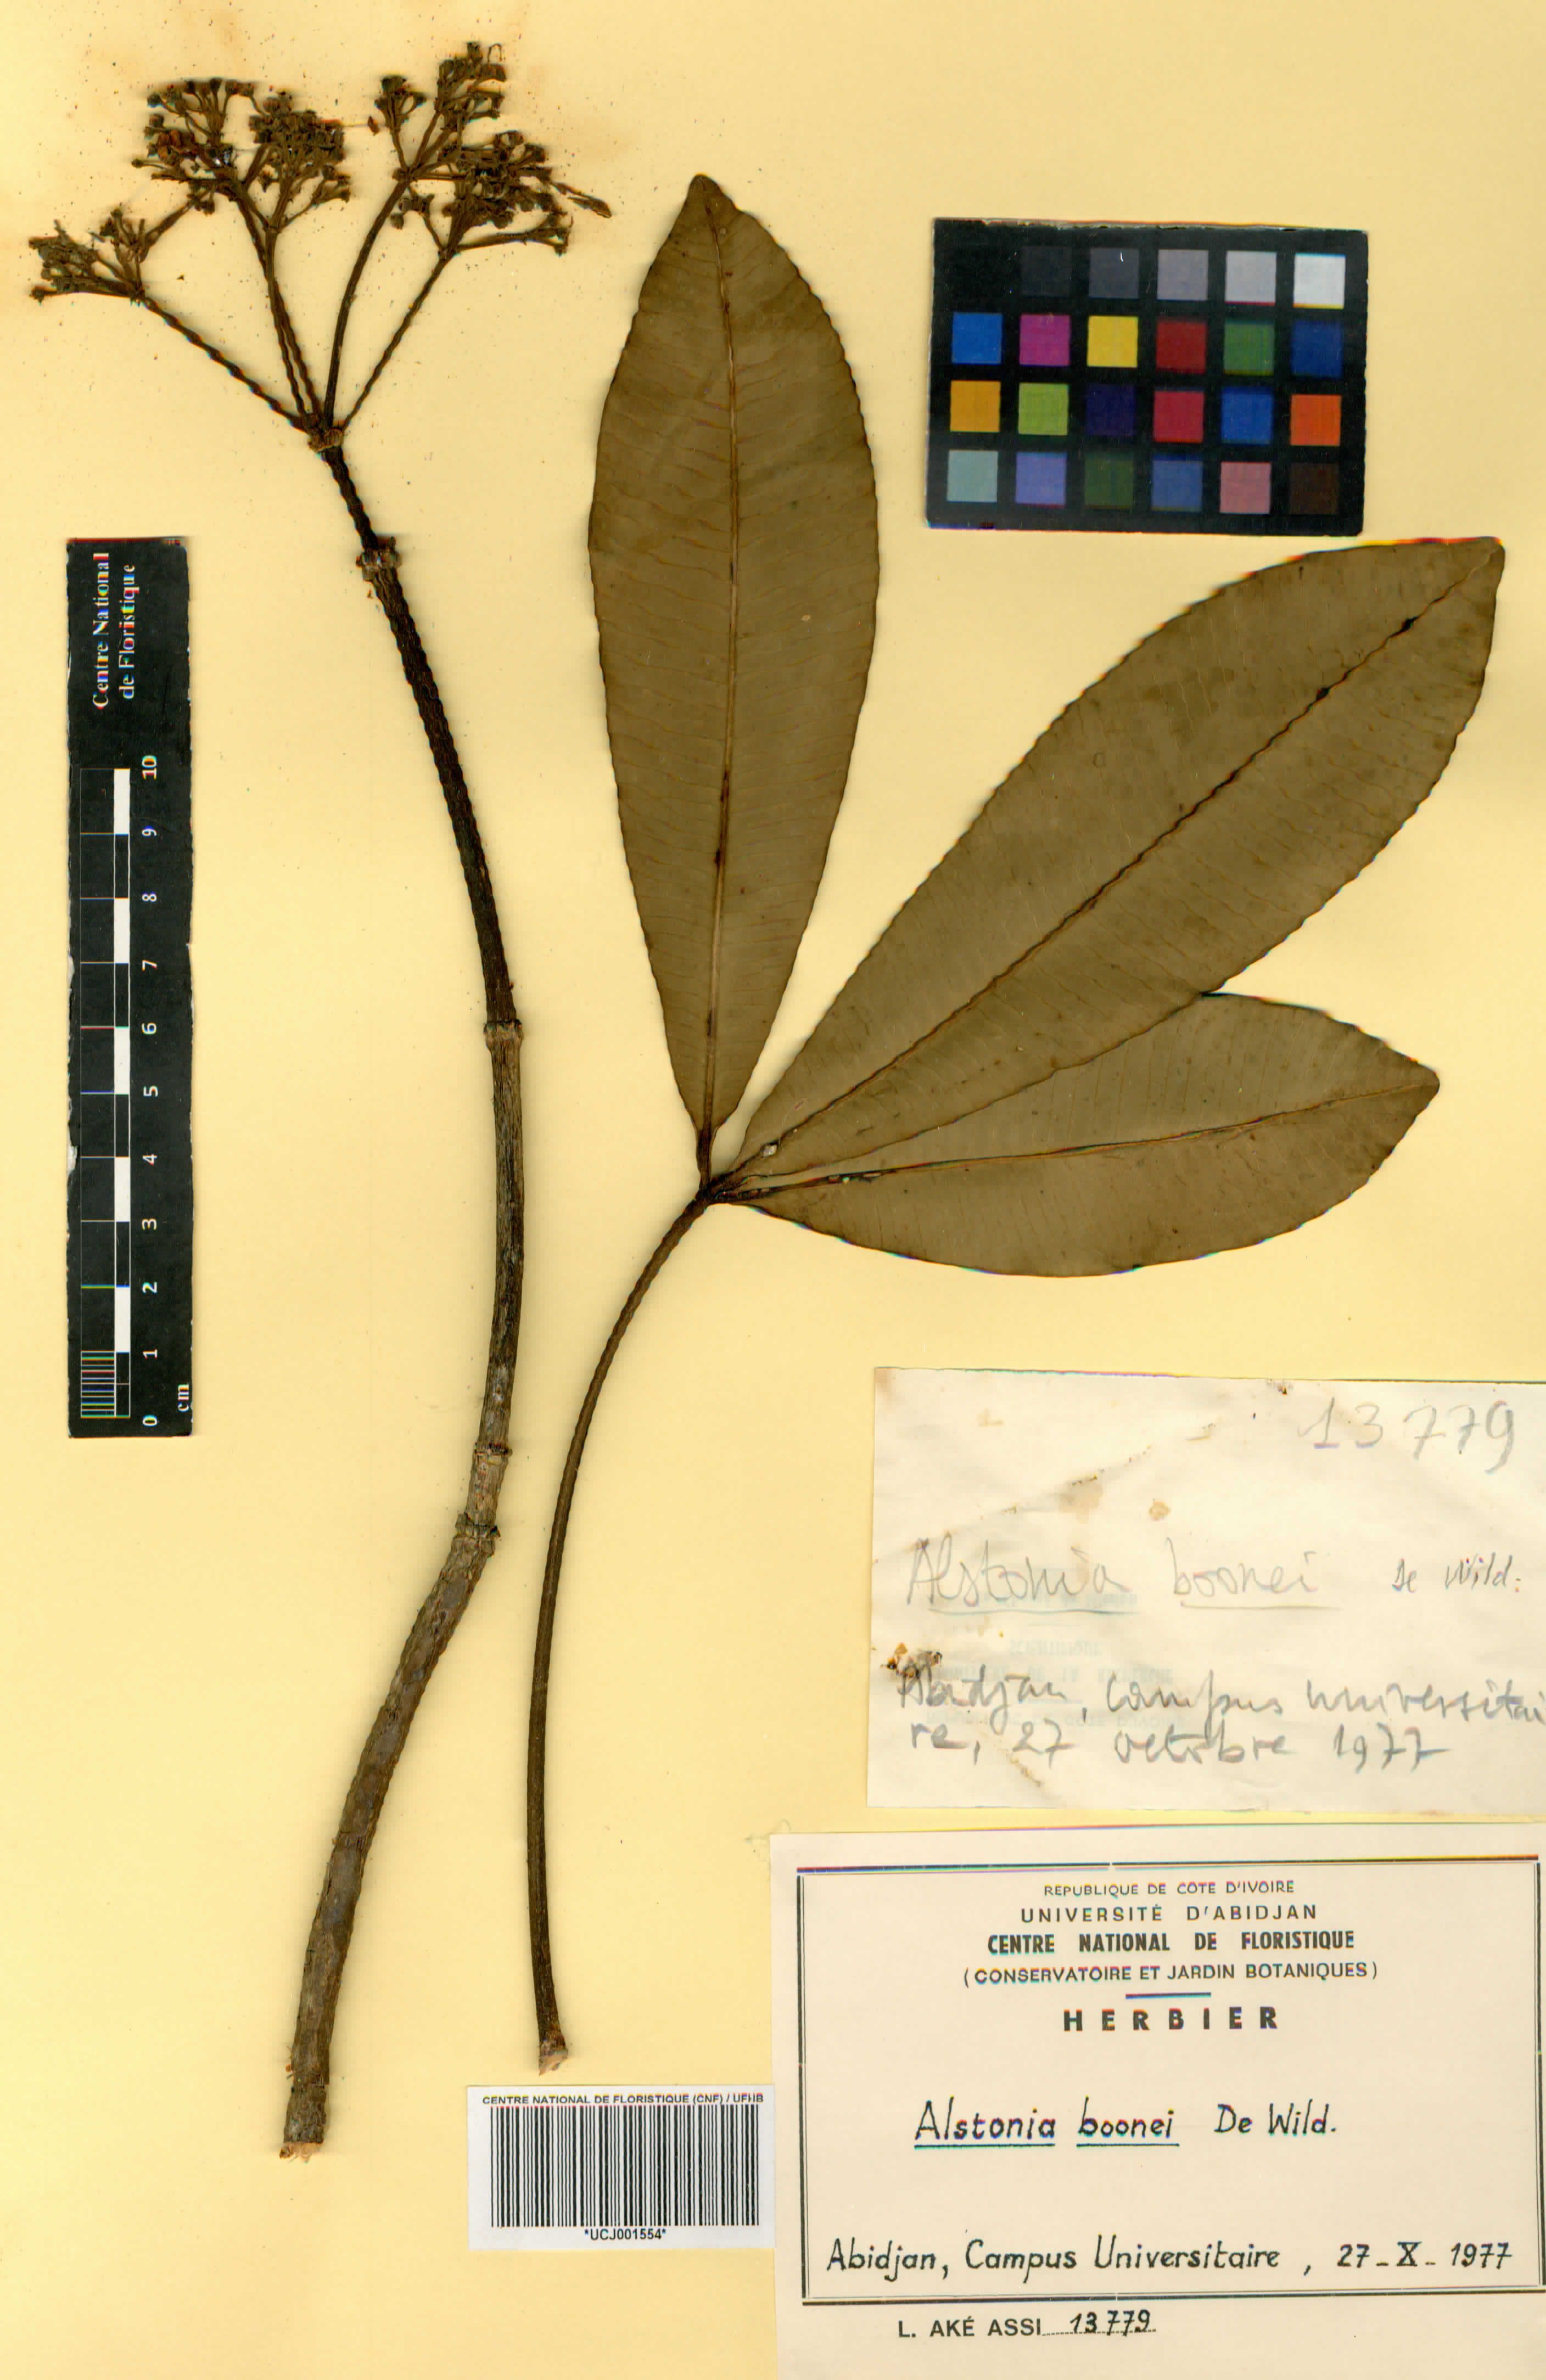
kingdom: Plantae
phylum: Tracheophyta
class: Magnoliopsida
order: Gentianales
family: Apocynaceae
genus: Alstonia
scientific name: Alstonia boonei
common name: Alstonia
